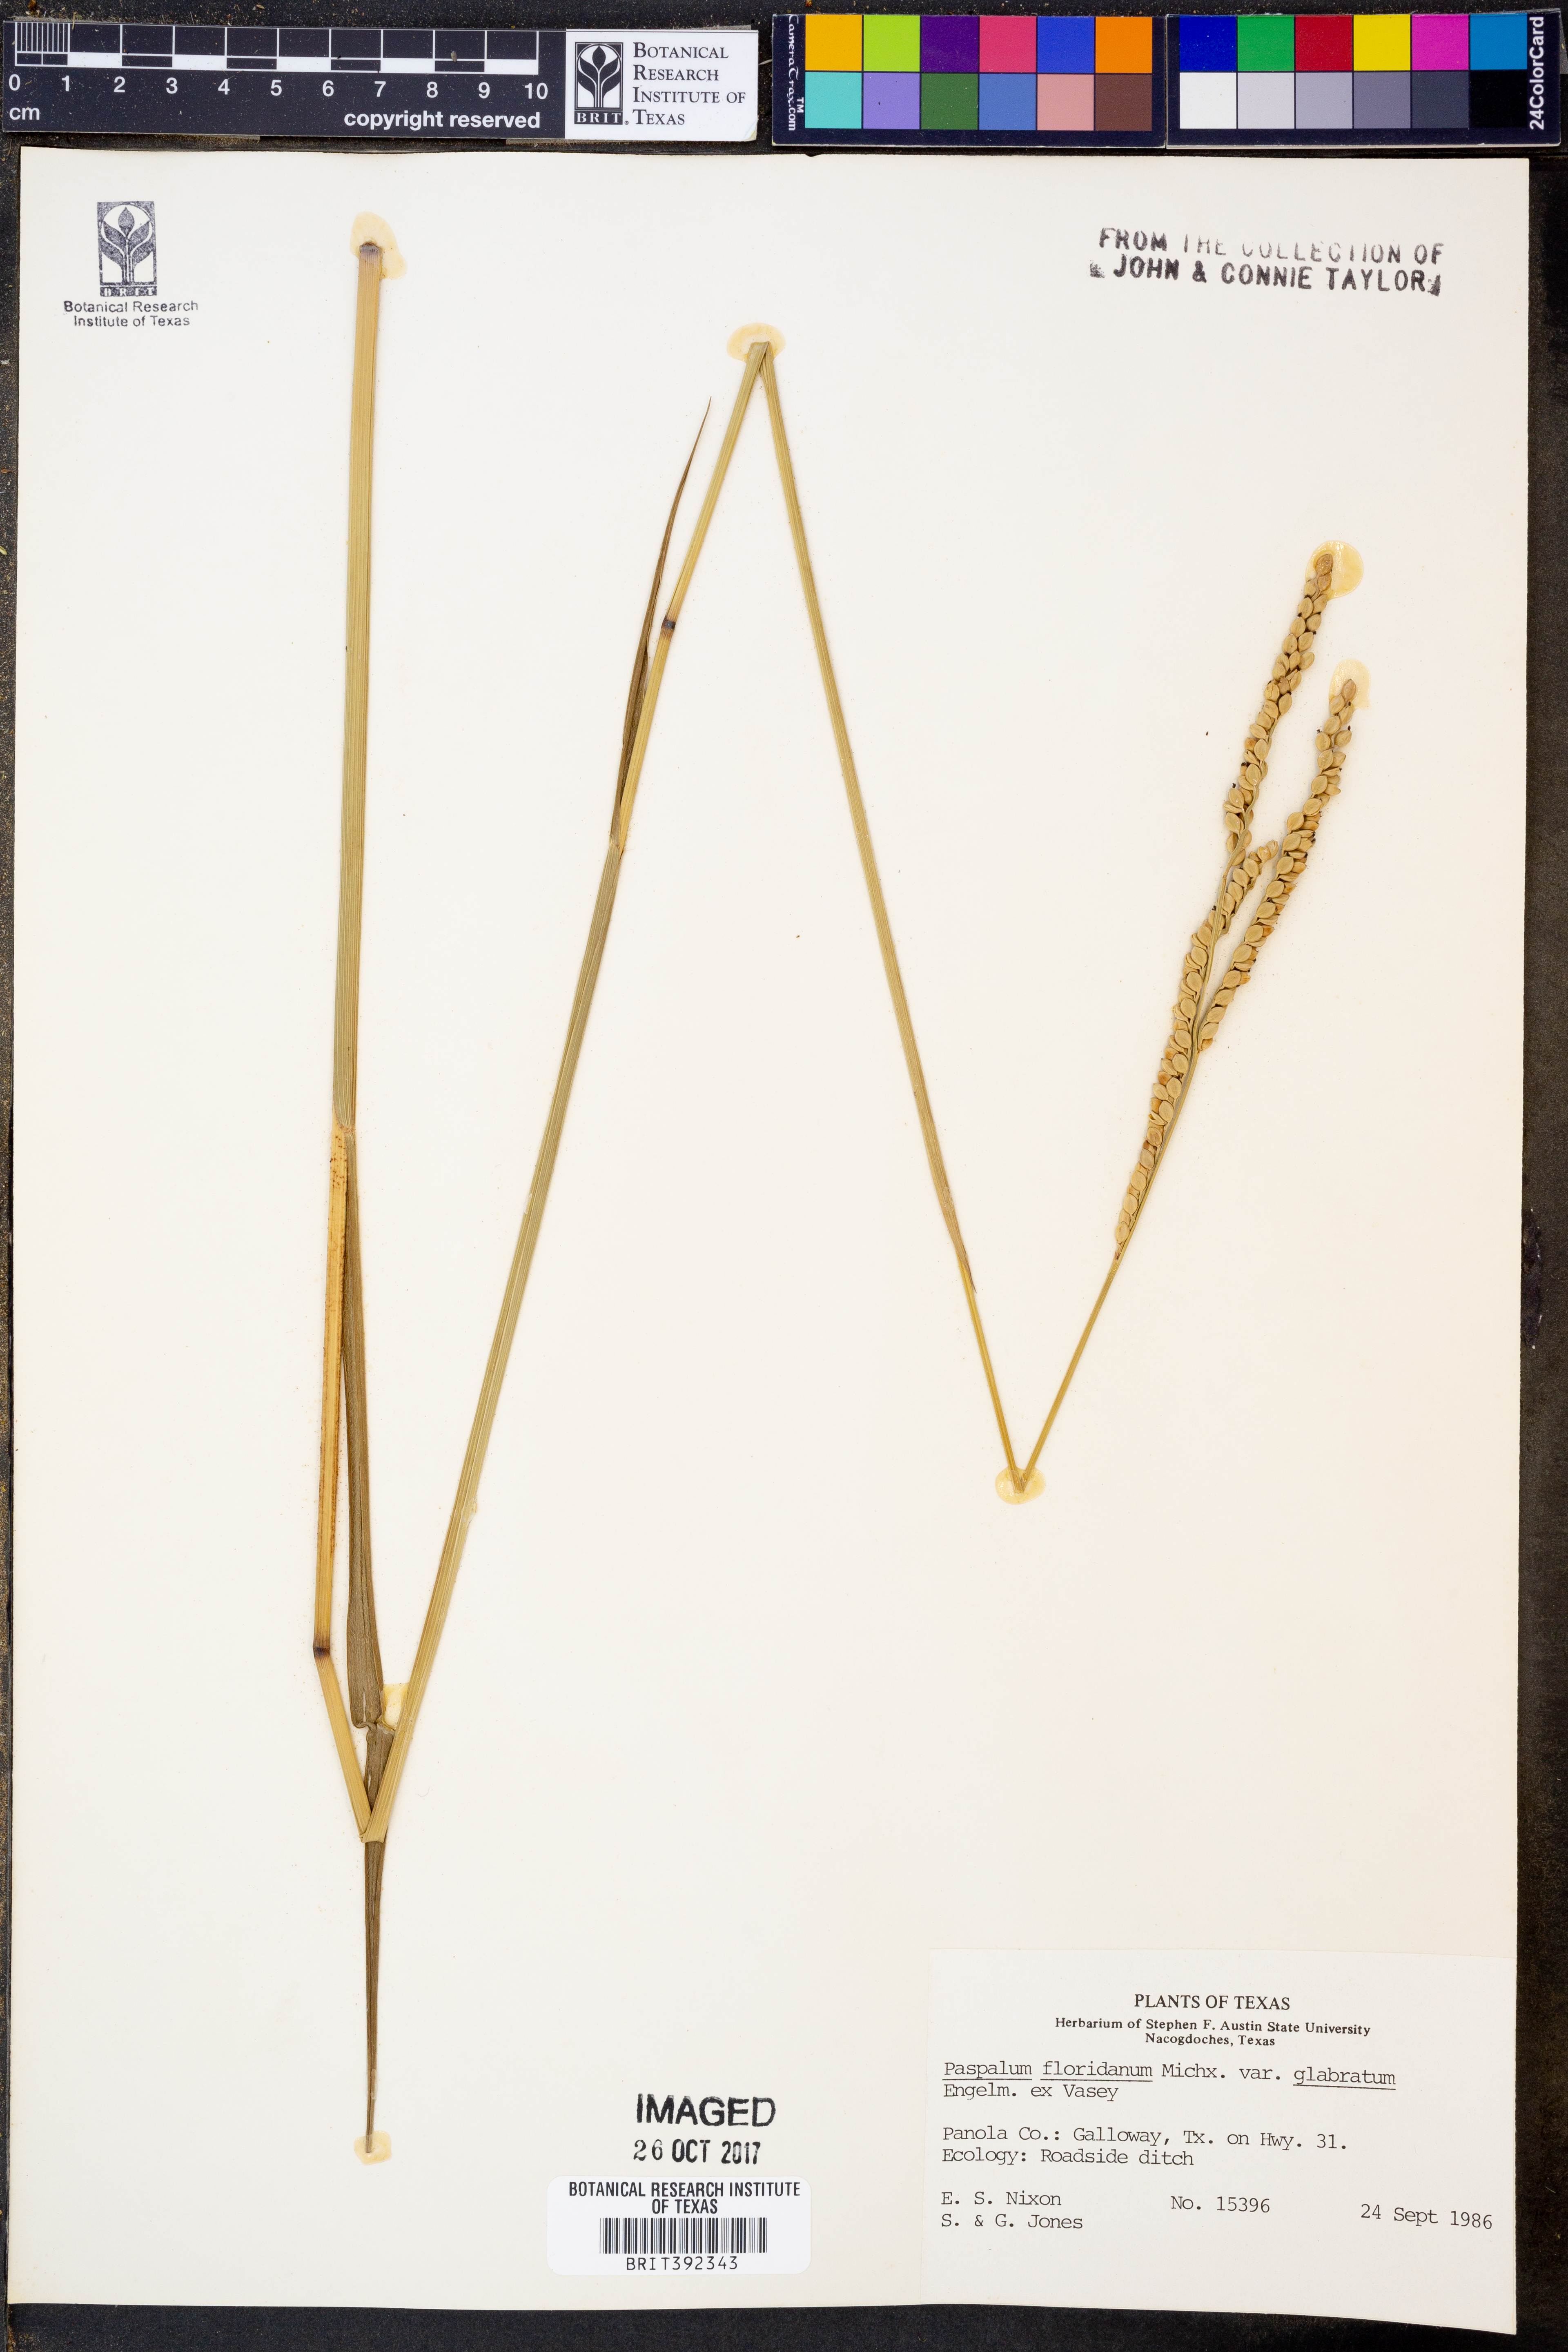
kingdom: Plantae
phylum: Tracheophyta
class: Liliopsida
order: Poales
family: Poaceae
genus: Paspalum
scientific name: Paspalum floridanum
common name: Florida paspalum
